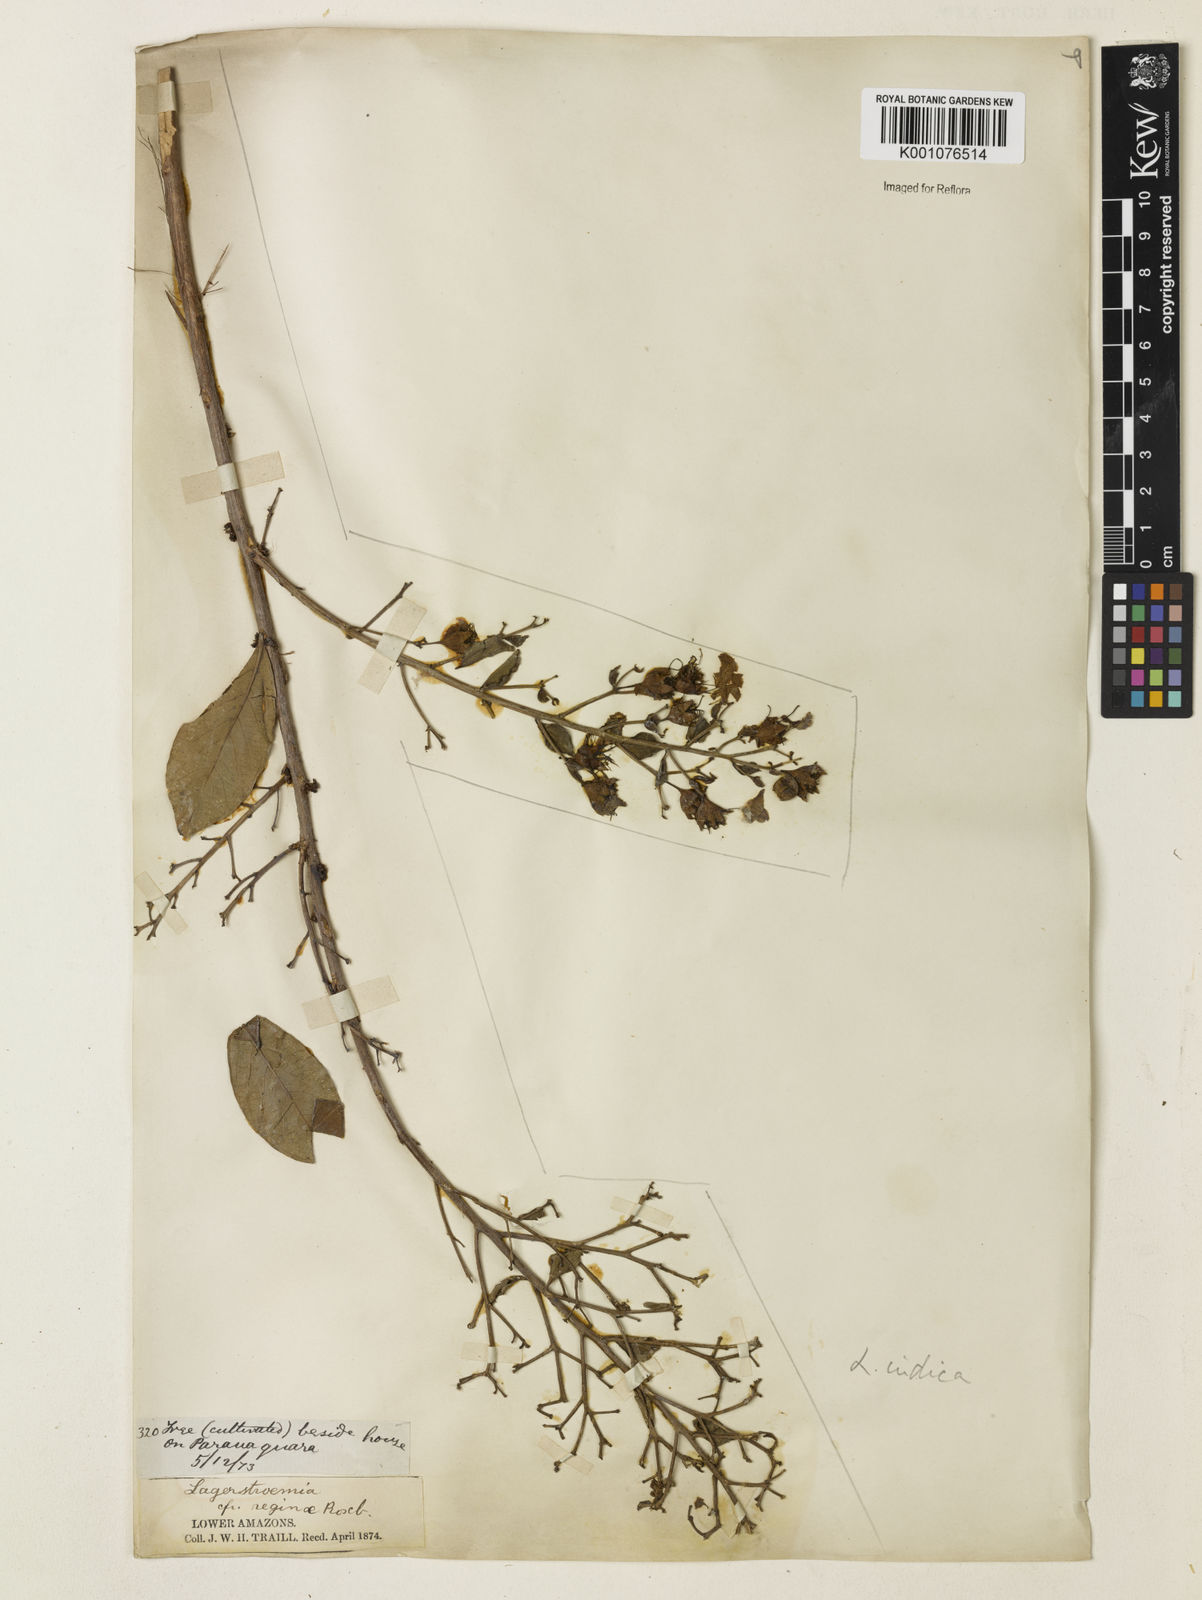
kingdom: Plantae
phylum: Tracheophyta
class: Magnoliopsida
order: Myrtales
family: Lythraceae
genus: Lagerstroemia
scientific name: Lagerstroemia indica
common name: Crape-myrtle
